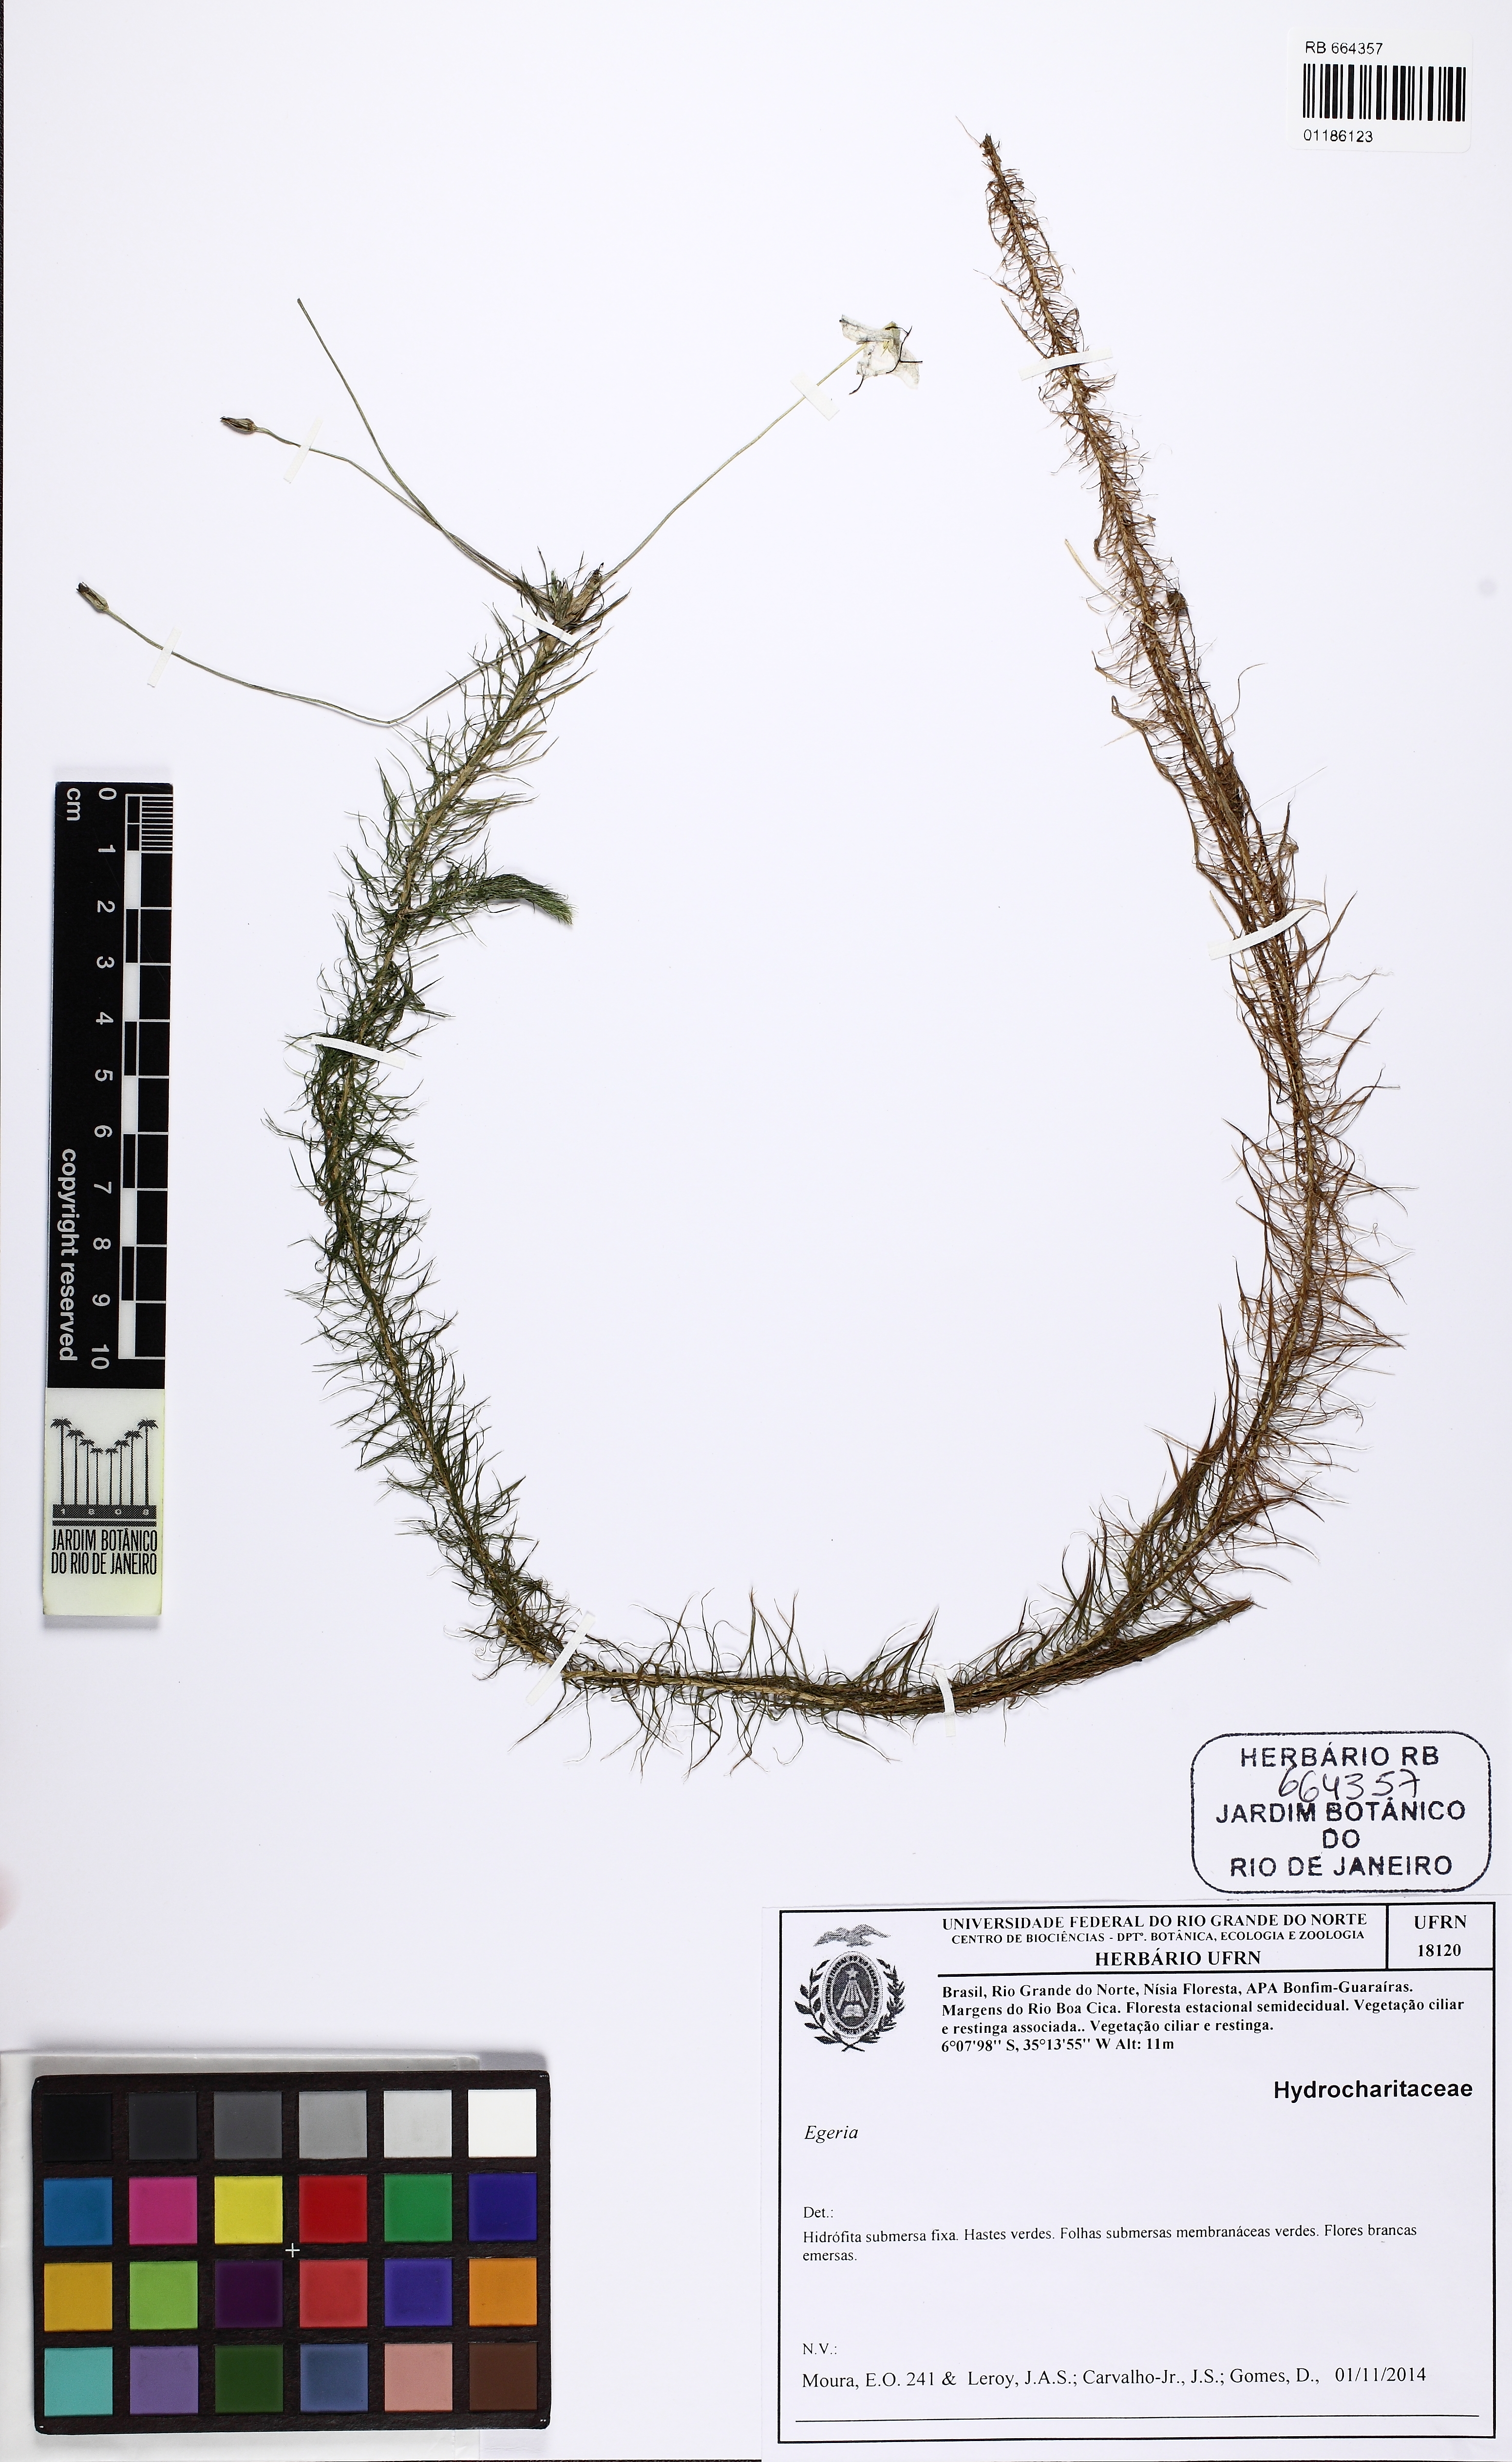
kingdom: Plantae
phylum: Tracheophyta
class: Liliopsida
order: Poales
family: Mayacaceae
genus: Mayaca
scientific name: Mayaca
